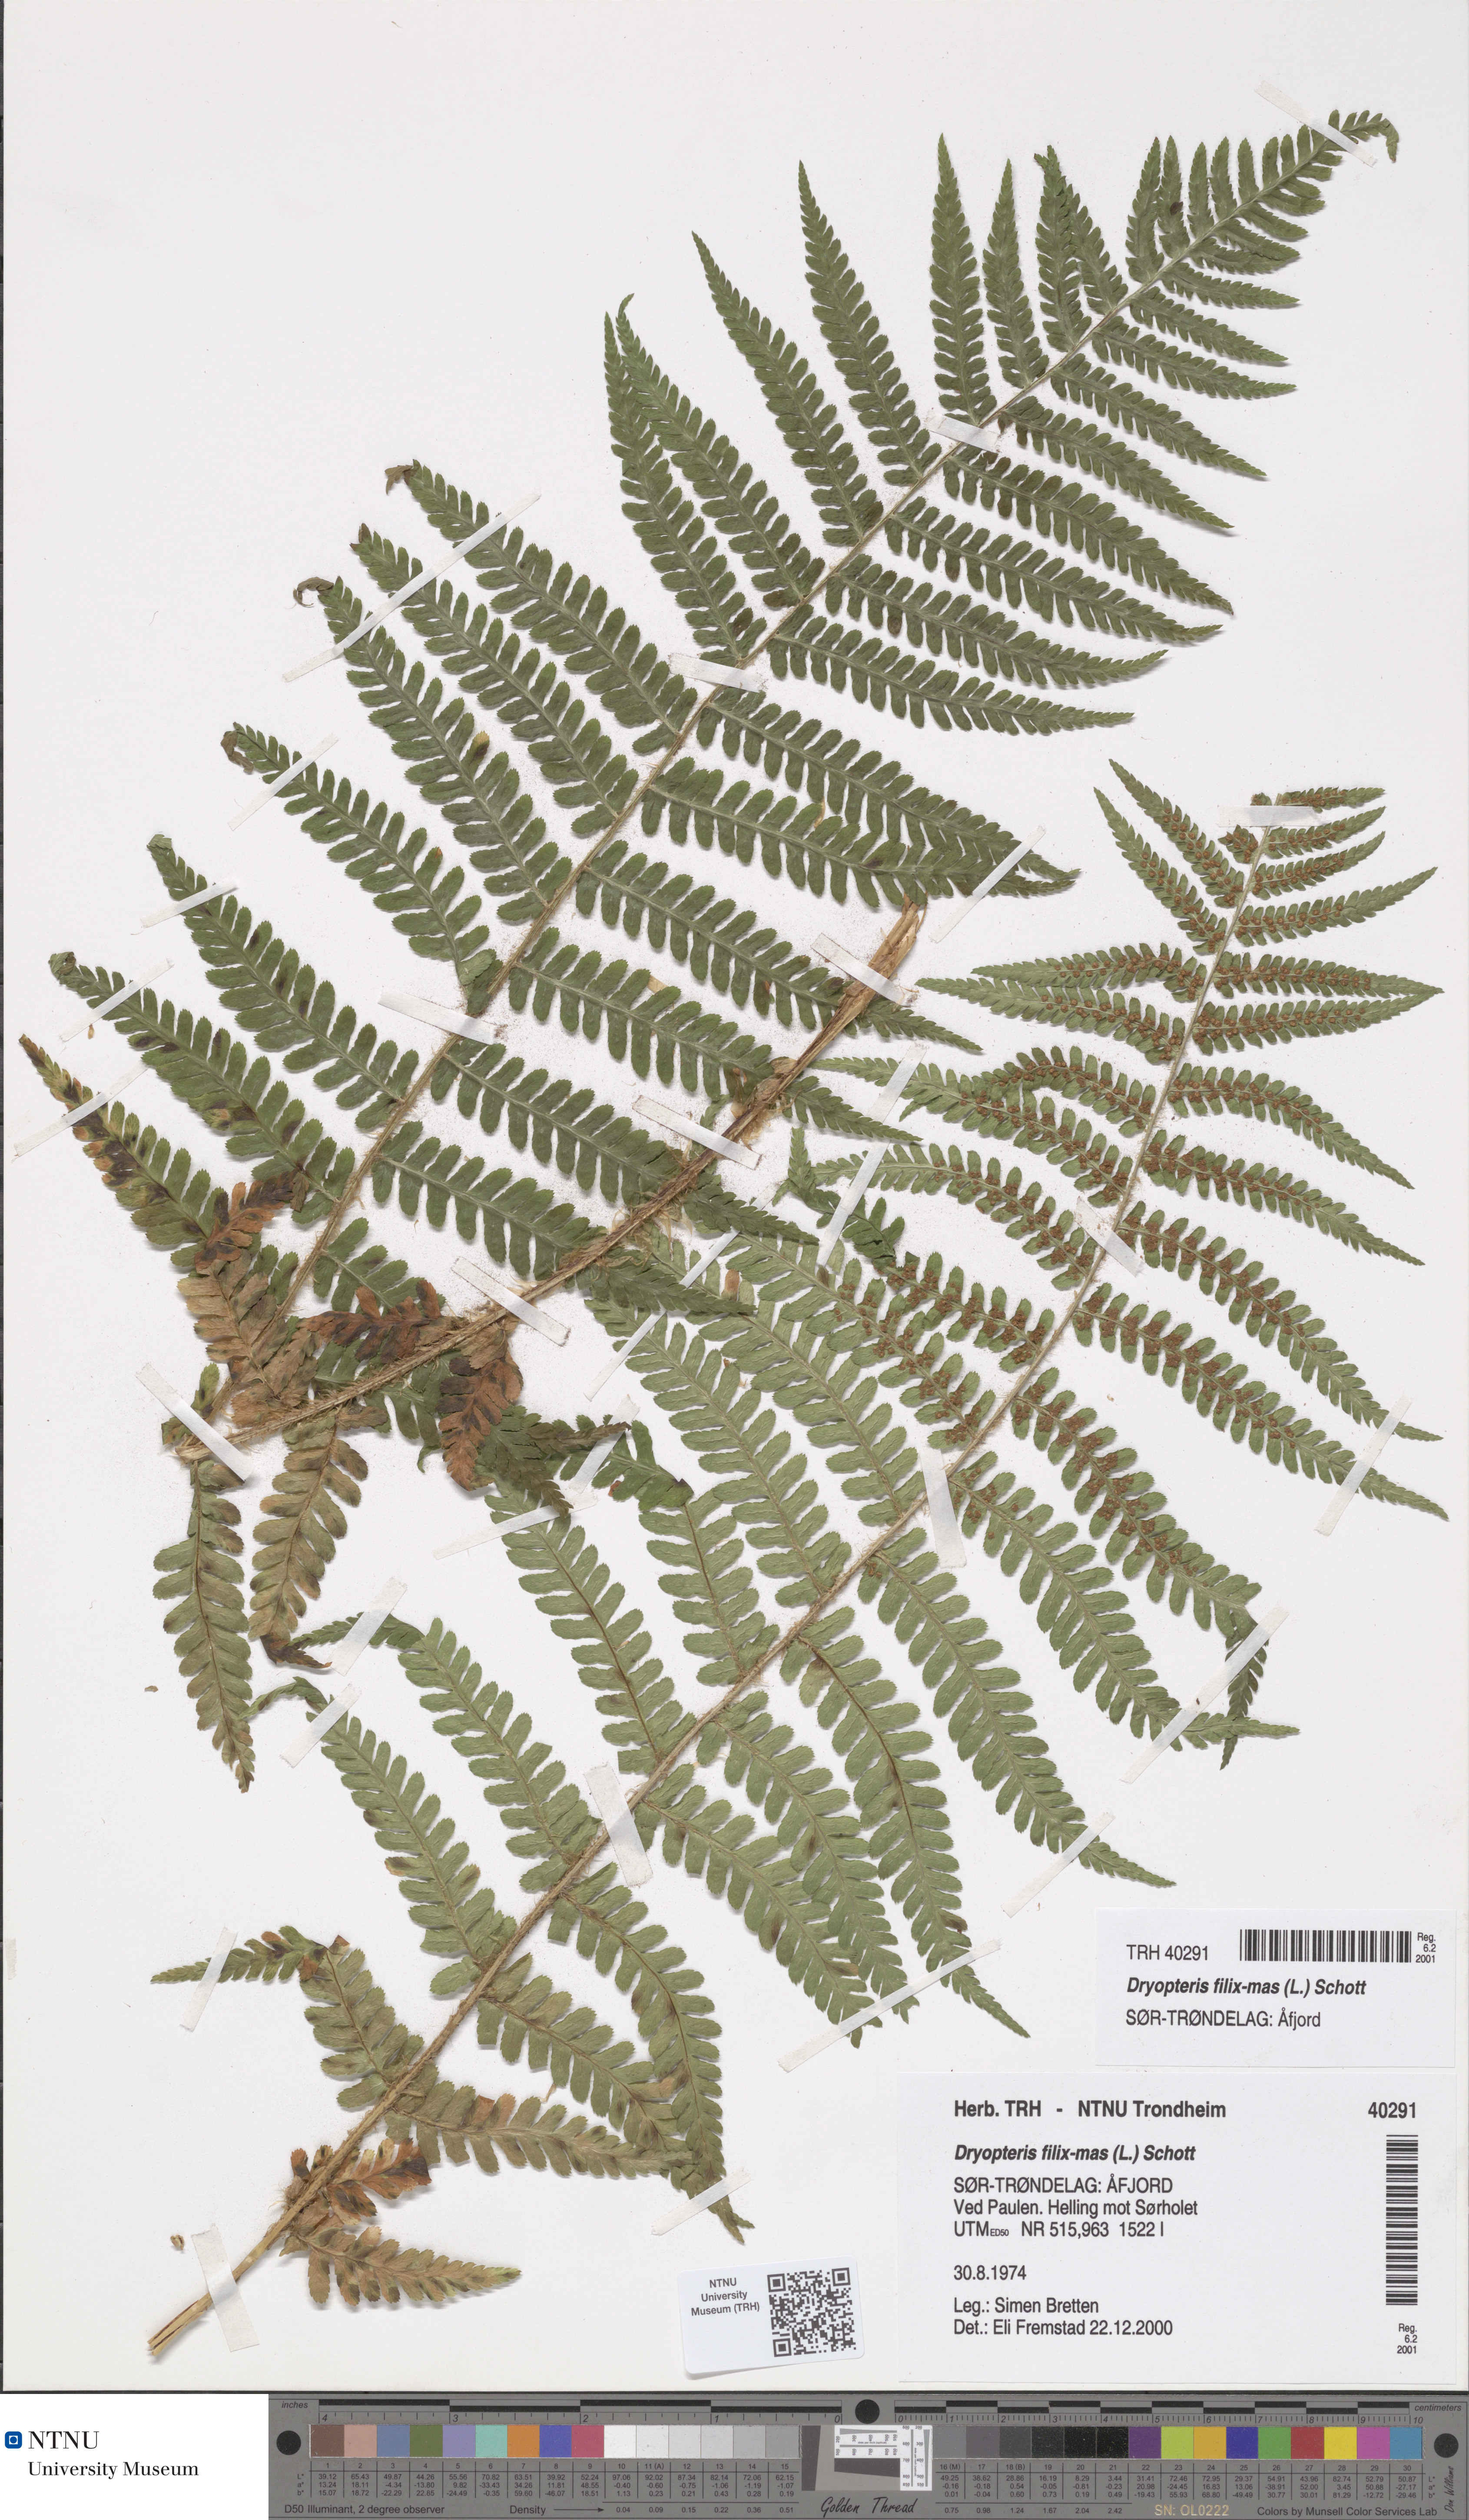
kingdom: Plantae
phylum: Tracheophyta
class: Polypodiopsida
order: Polypodiales
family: Dryopteridaceae
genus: Dryopteris
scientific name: Dryopteris filix-mas
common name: Male fern
